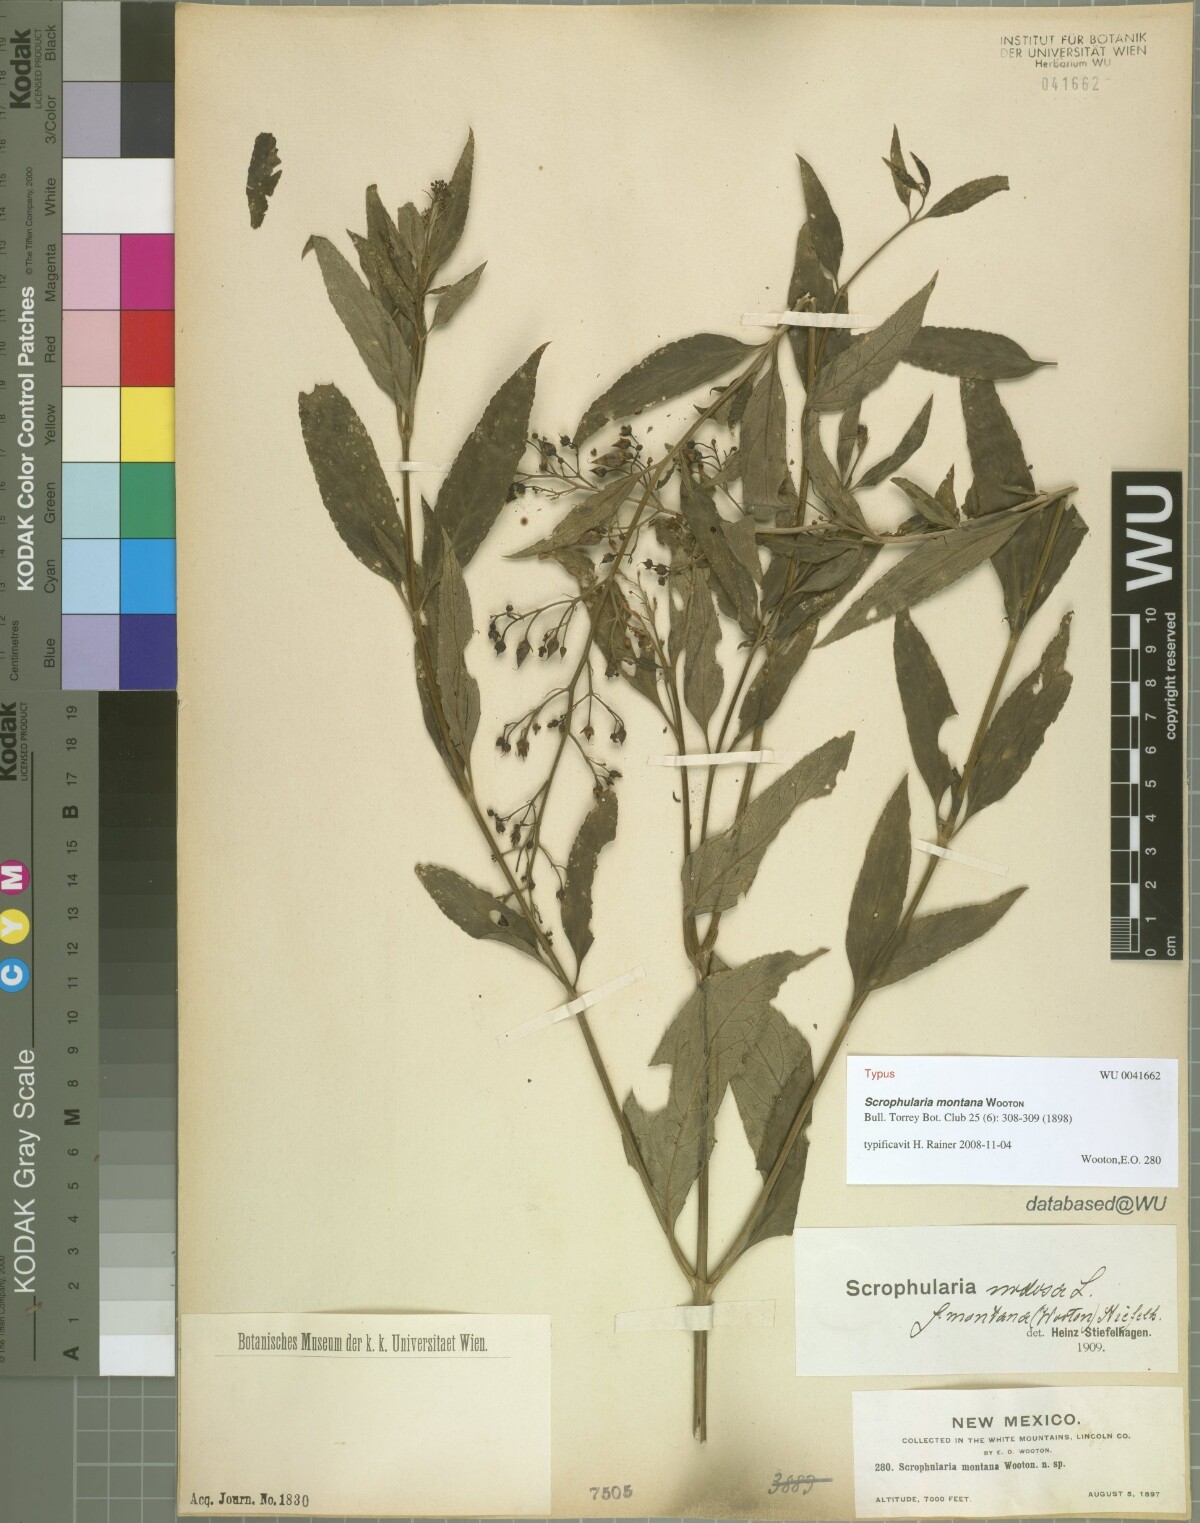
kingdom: Plantae
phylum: Tracheophyta
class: Magnoliopsida
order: Lamiales
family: Scrophulariaceae
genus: Scrophularia
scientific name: Scrophularia montana
